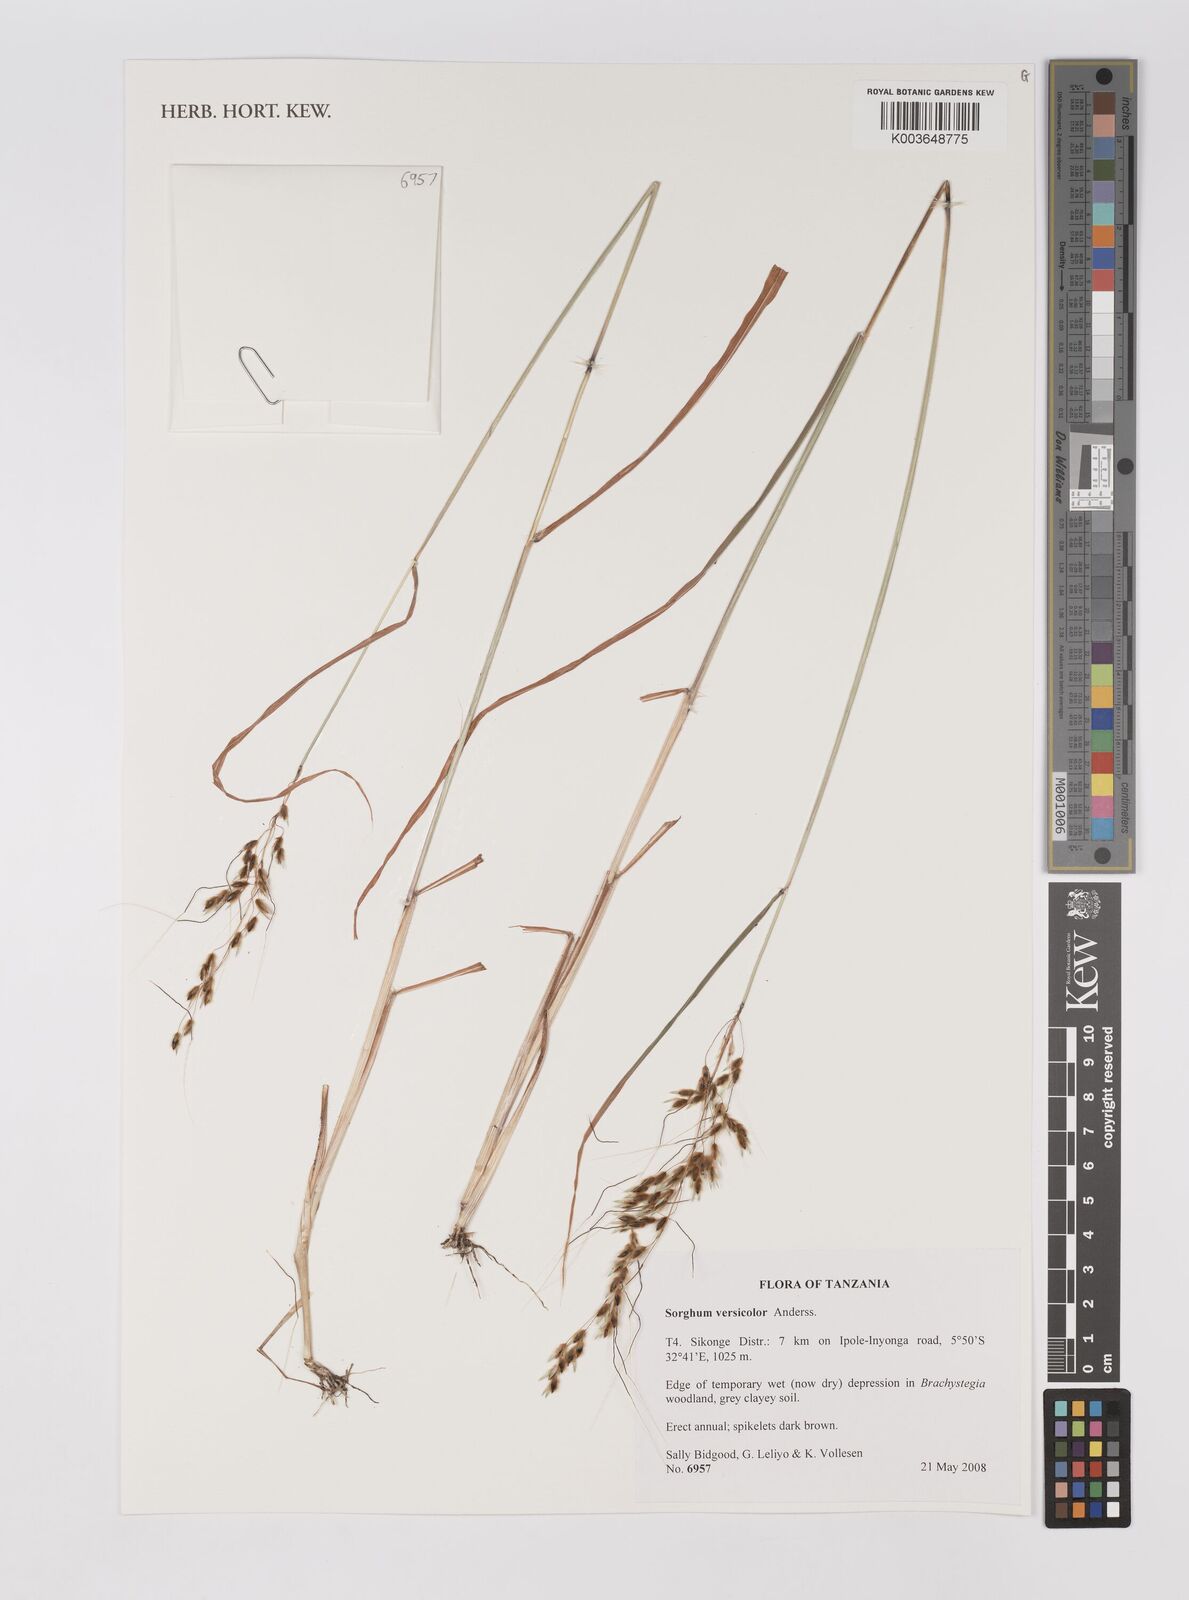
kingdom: Plantae
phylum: Tracheophyta
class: Liliopsida
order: Poales
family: Poaceae
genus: Sarga
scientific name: Sarga versicolor
